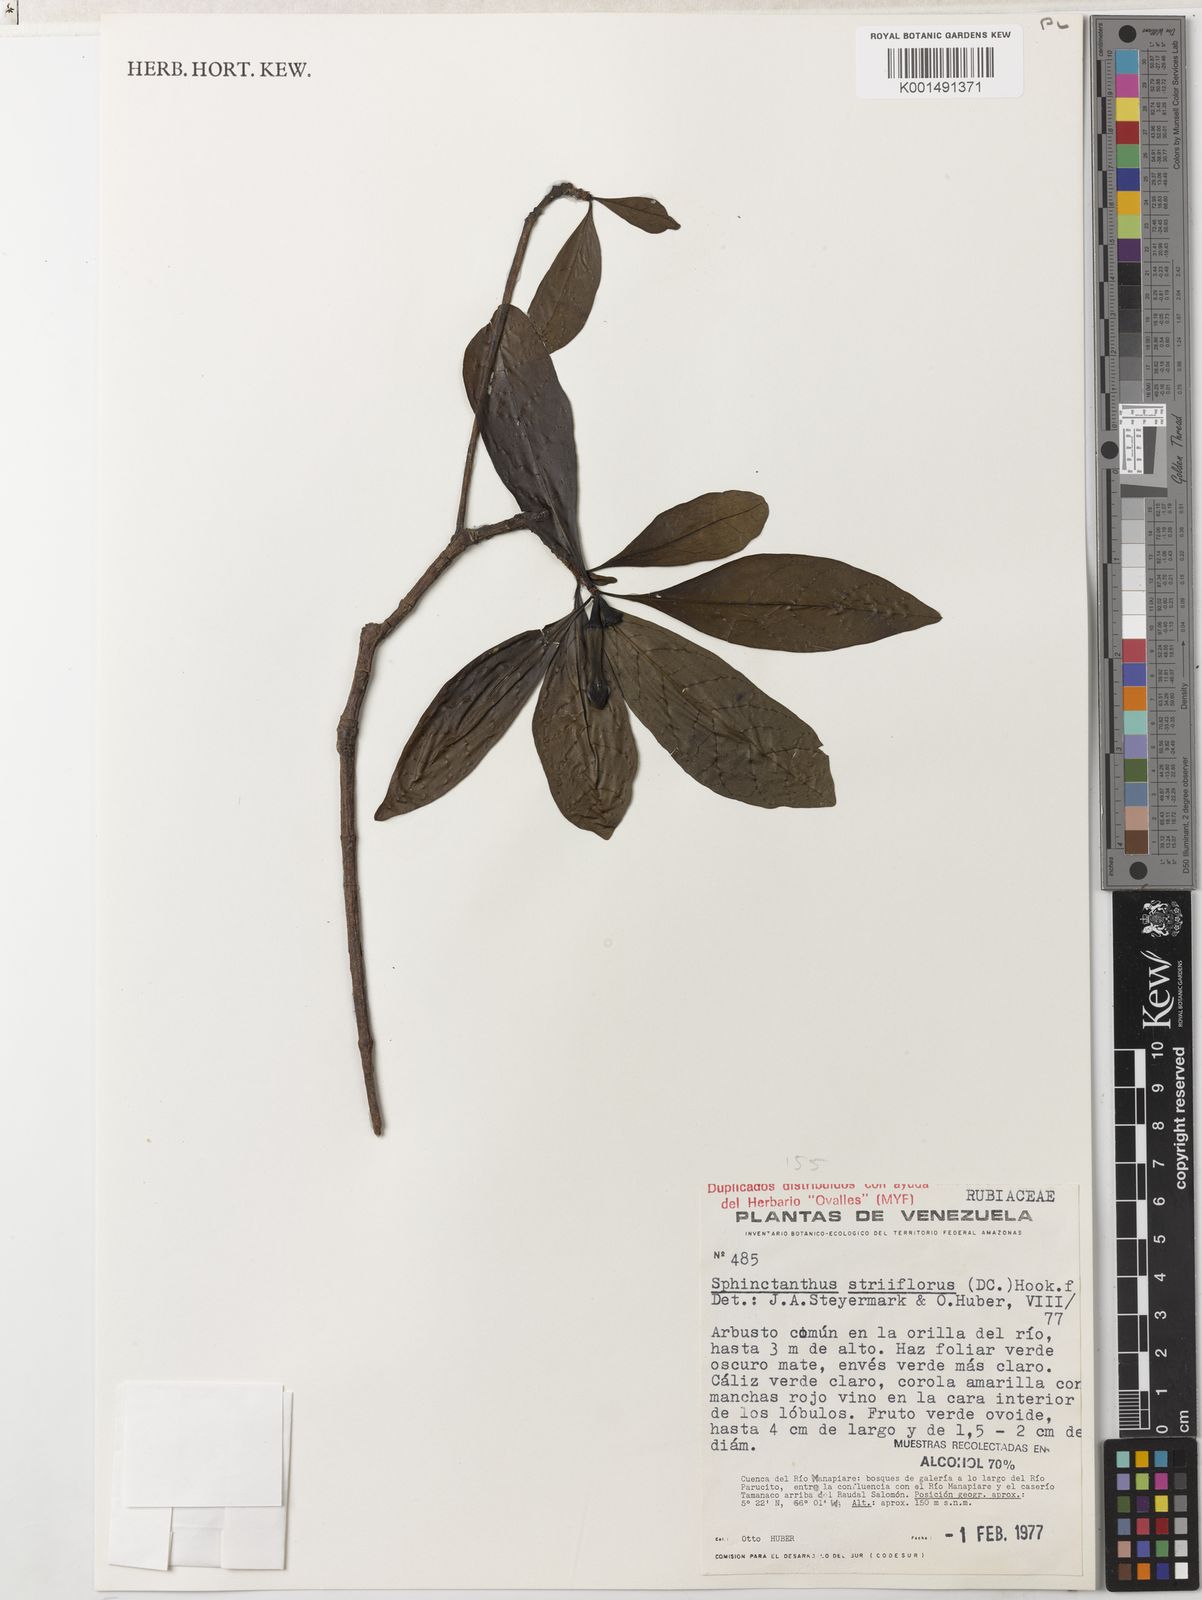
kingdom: Plantae
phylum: Tracheophyta
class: Magnoliopsida
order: Gentianales
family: Rubiaceae
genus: Sphinctanthus
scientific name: Sphinctanthus striiflorus
